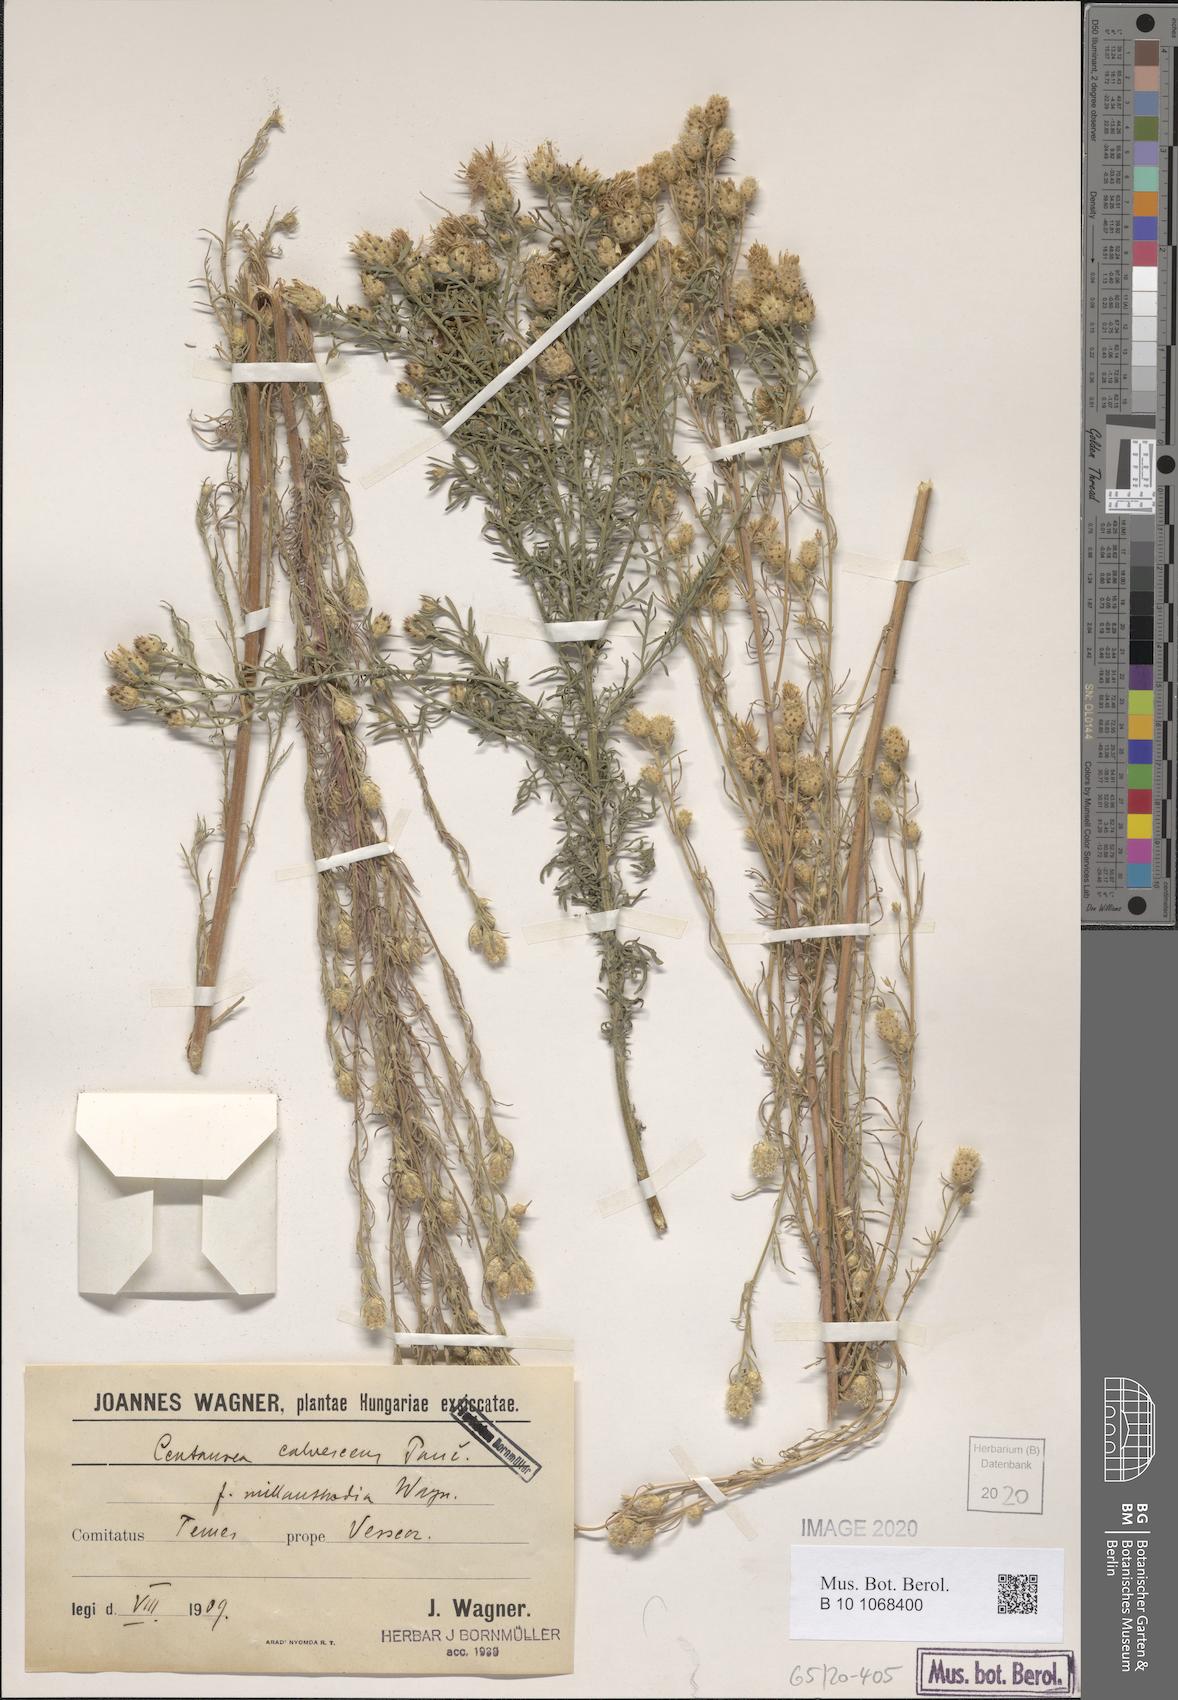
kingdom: Plantae
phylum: Tracheophyta
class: Magnoliopsida
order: Asterales
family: Asteraceae
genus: Centaurea
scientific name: Centaurea reichenbachii
